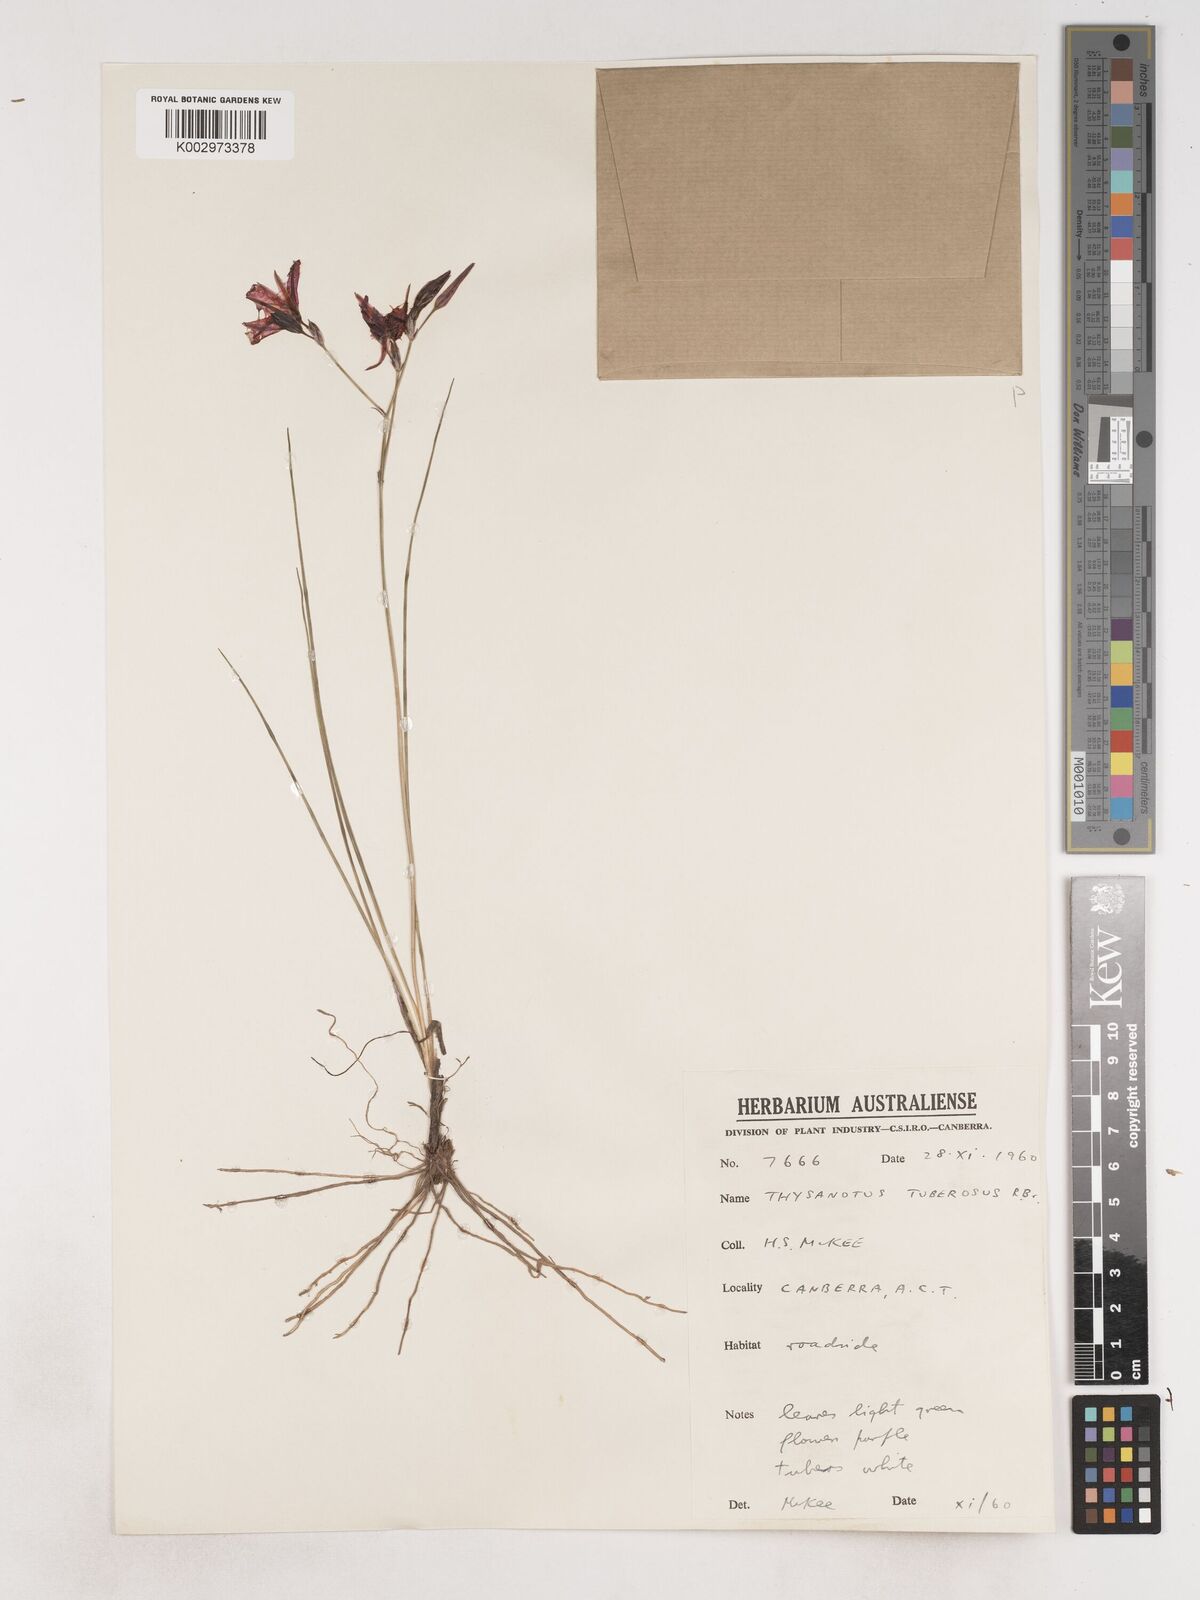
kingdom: Plantae
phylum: Tracheophyta
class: Liliopsida
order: Asparagales
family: Asparagaceae
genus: Thysanotus
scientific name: Thysanotus tuberosus
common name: Common fringed-lily
